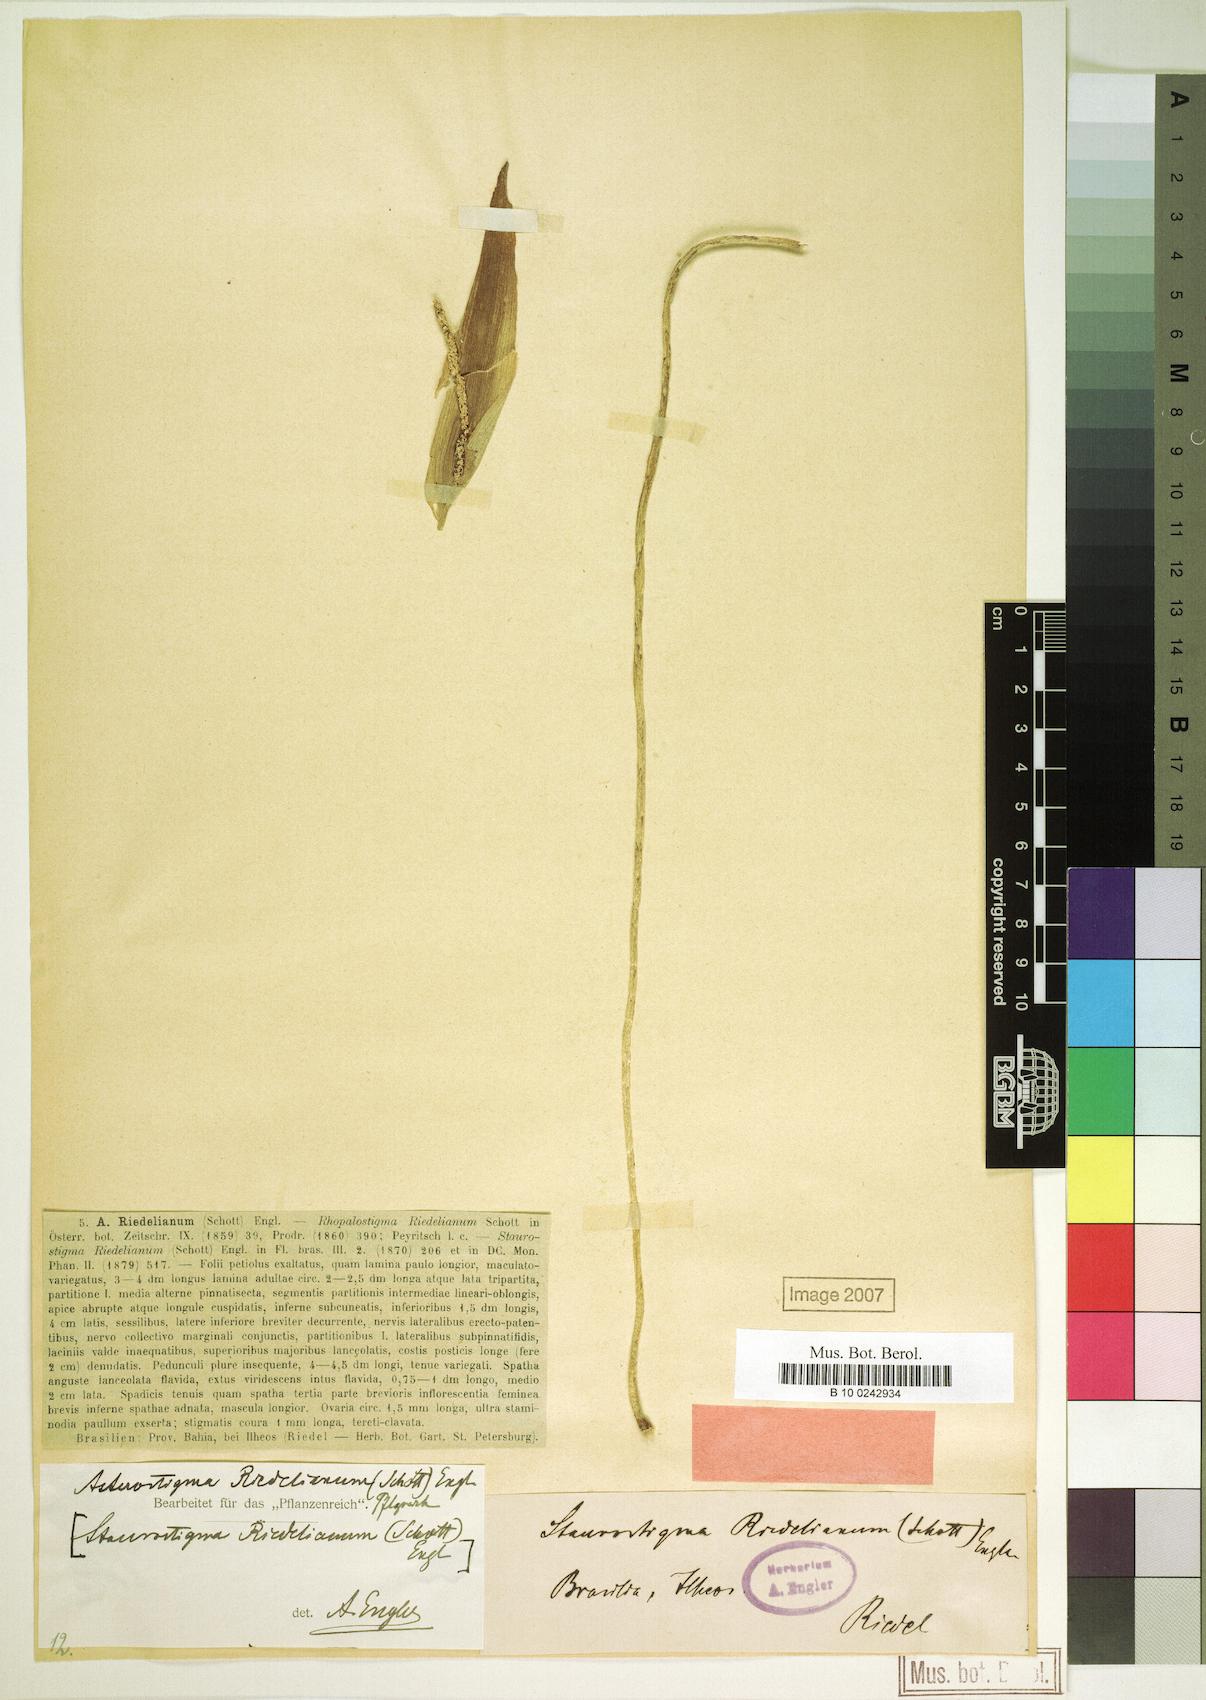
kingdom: Plantae
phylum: Tracheophyta
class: Liliopsida
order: Alismatales
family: Araceae
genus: Asterostigma
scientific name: Asterostigma riedelianum
